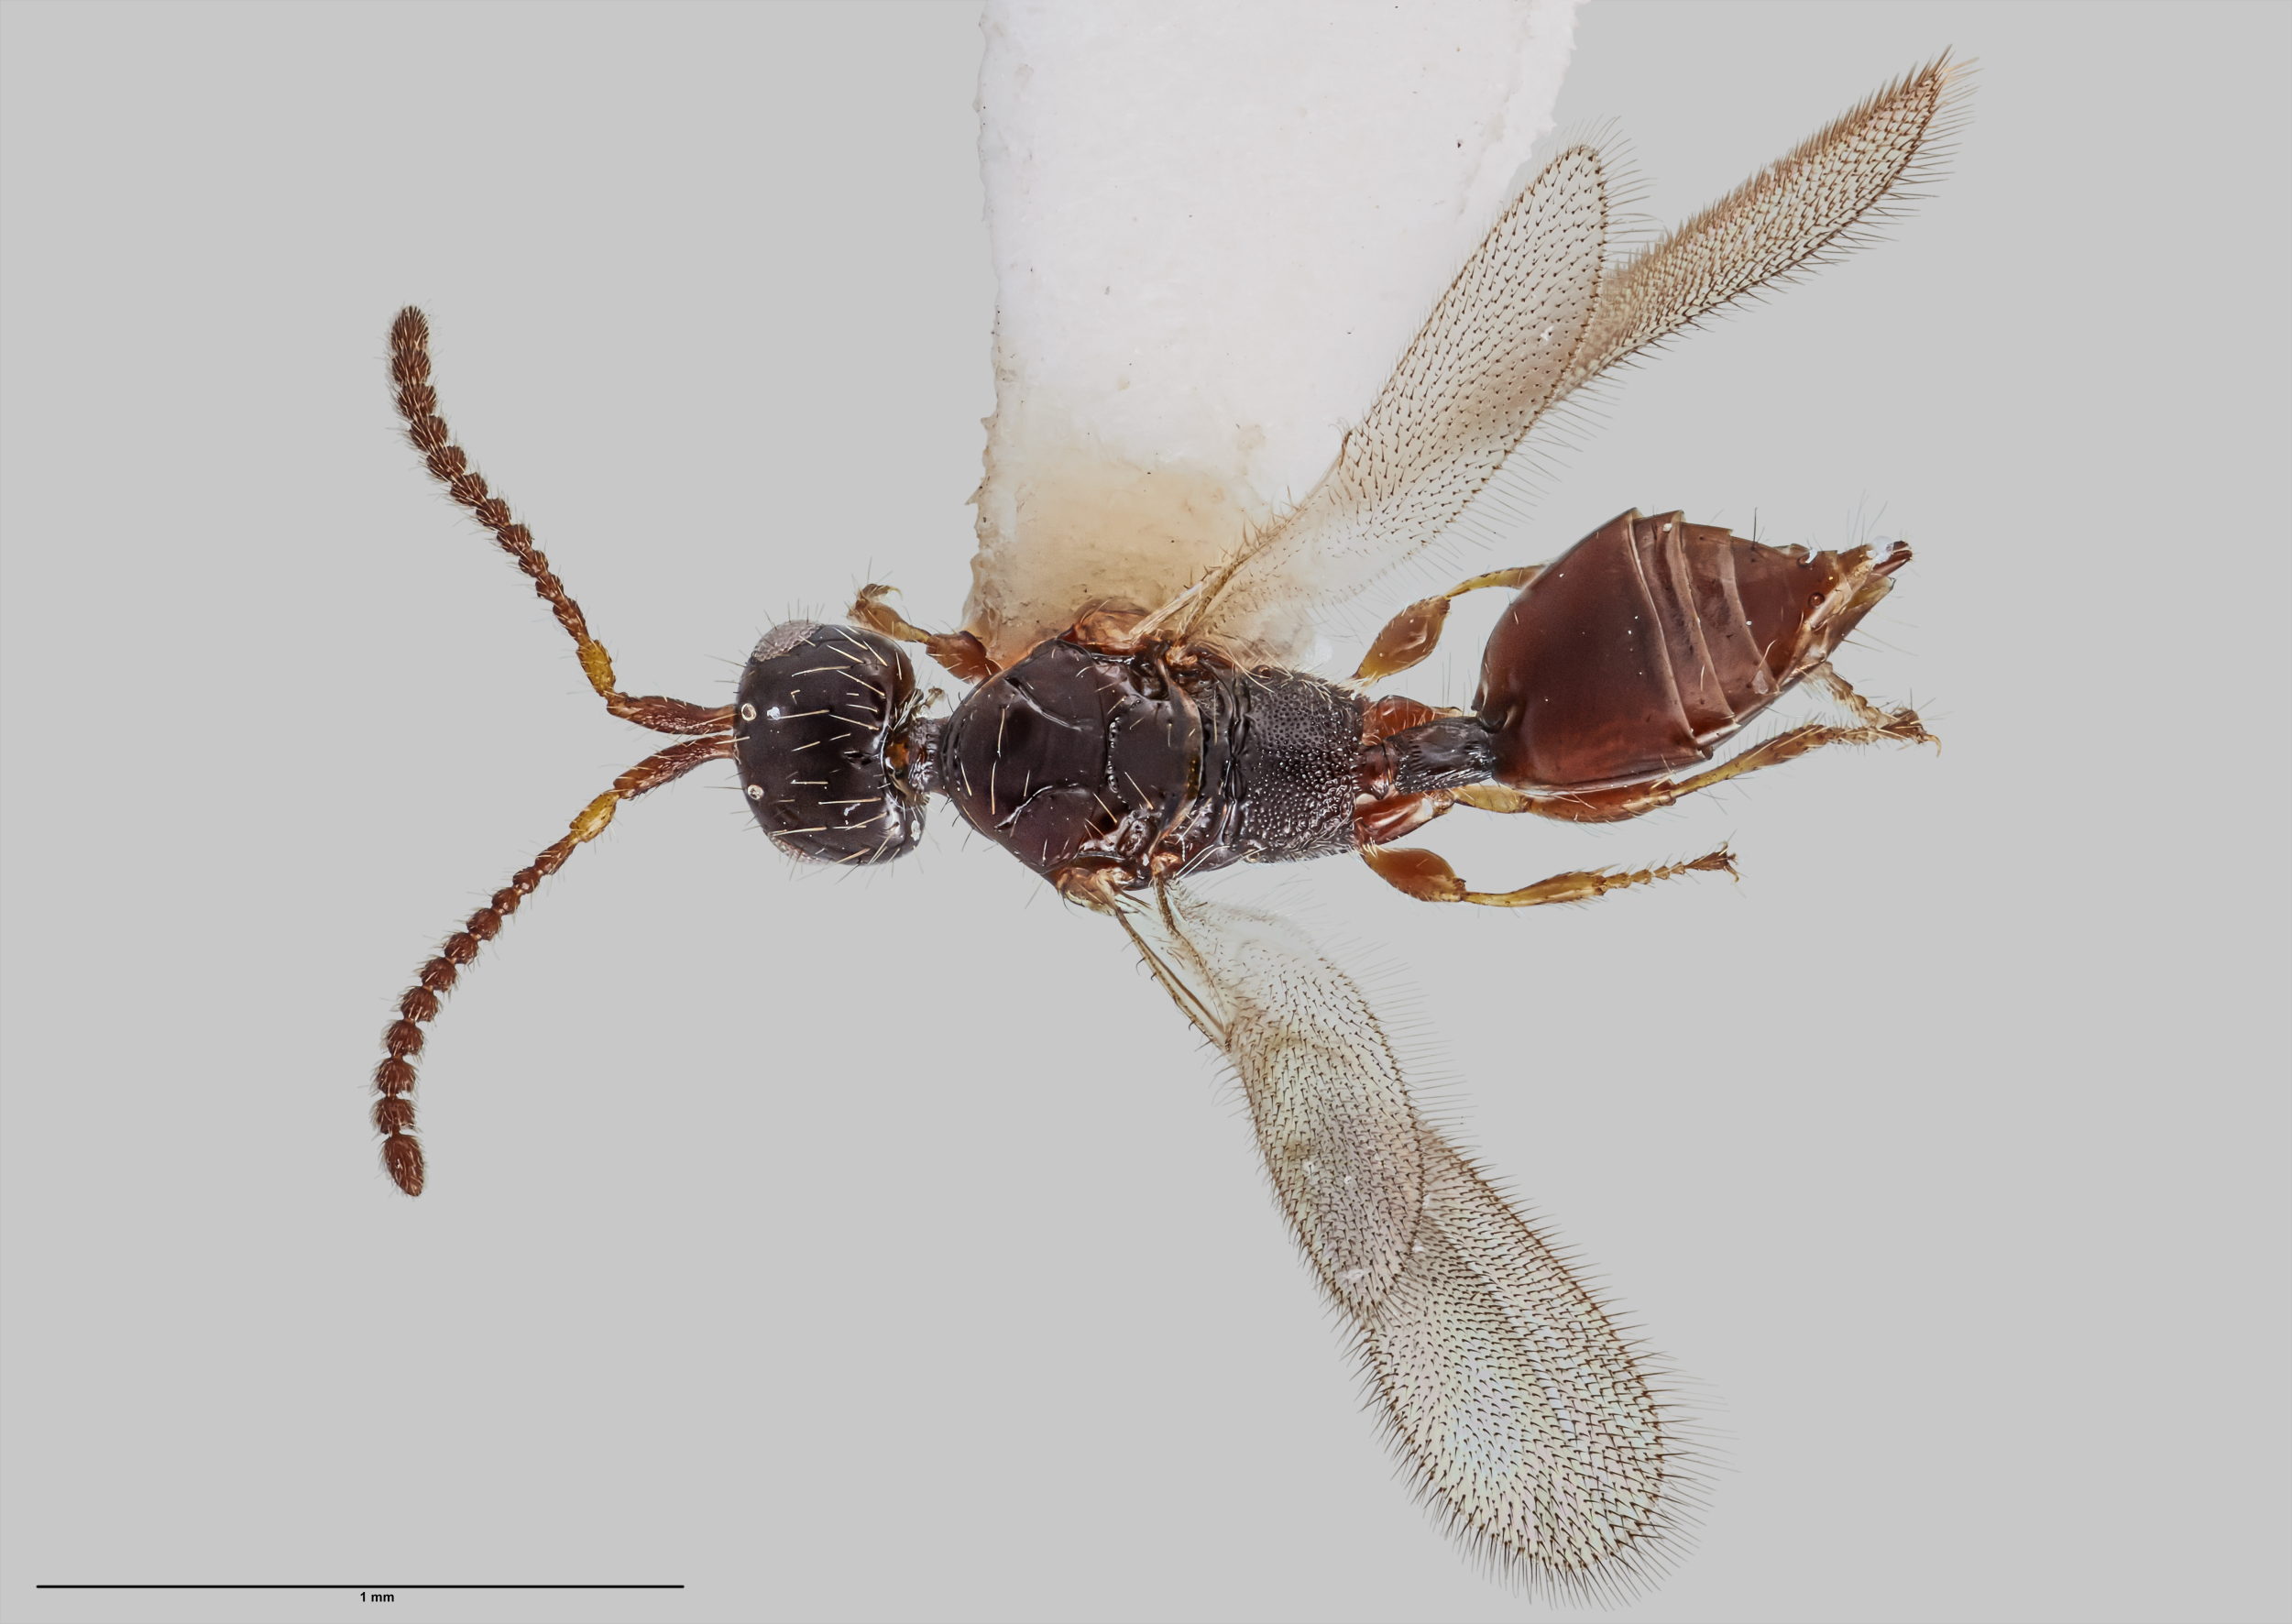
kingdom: Animalia
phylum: Arthropoda
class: Insecta
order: Hymenoptera
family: Diapriidae
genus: Pentapria
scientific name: Pentapria
